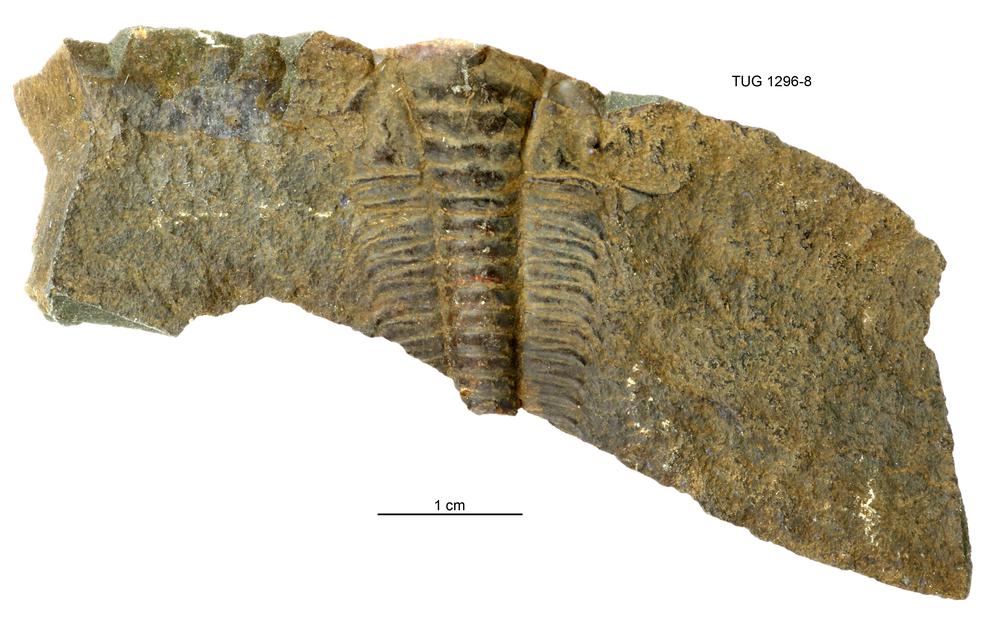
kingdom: Animalia
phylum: Arthropoda
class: Trilobita
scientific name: Trilobita
